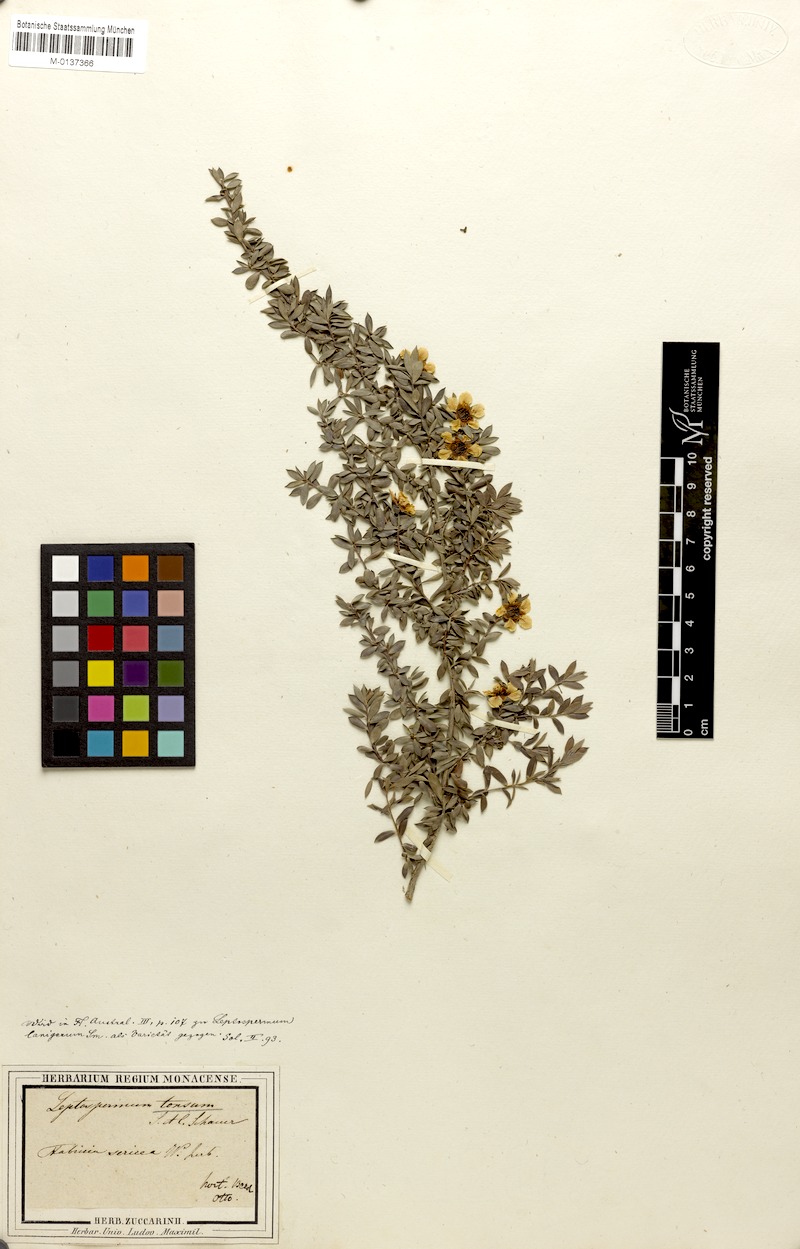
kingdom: Plantae
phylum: Tracheophyta
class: Magnoliopsida
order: Myrtales
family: Myrtaceae
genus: Leptospermum
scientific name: Leptospermum lanigerum
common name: Woolly tea-tree
